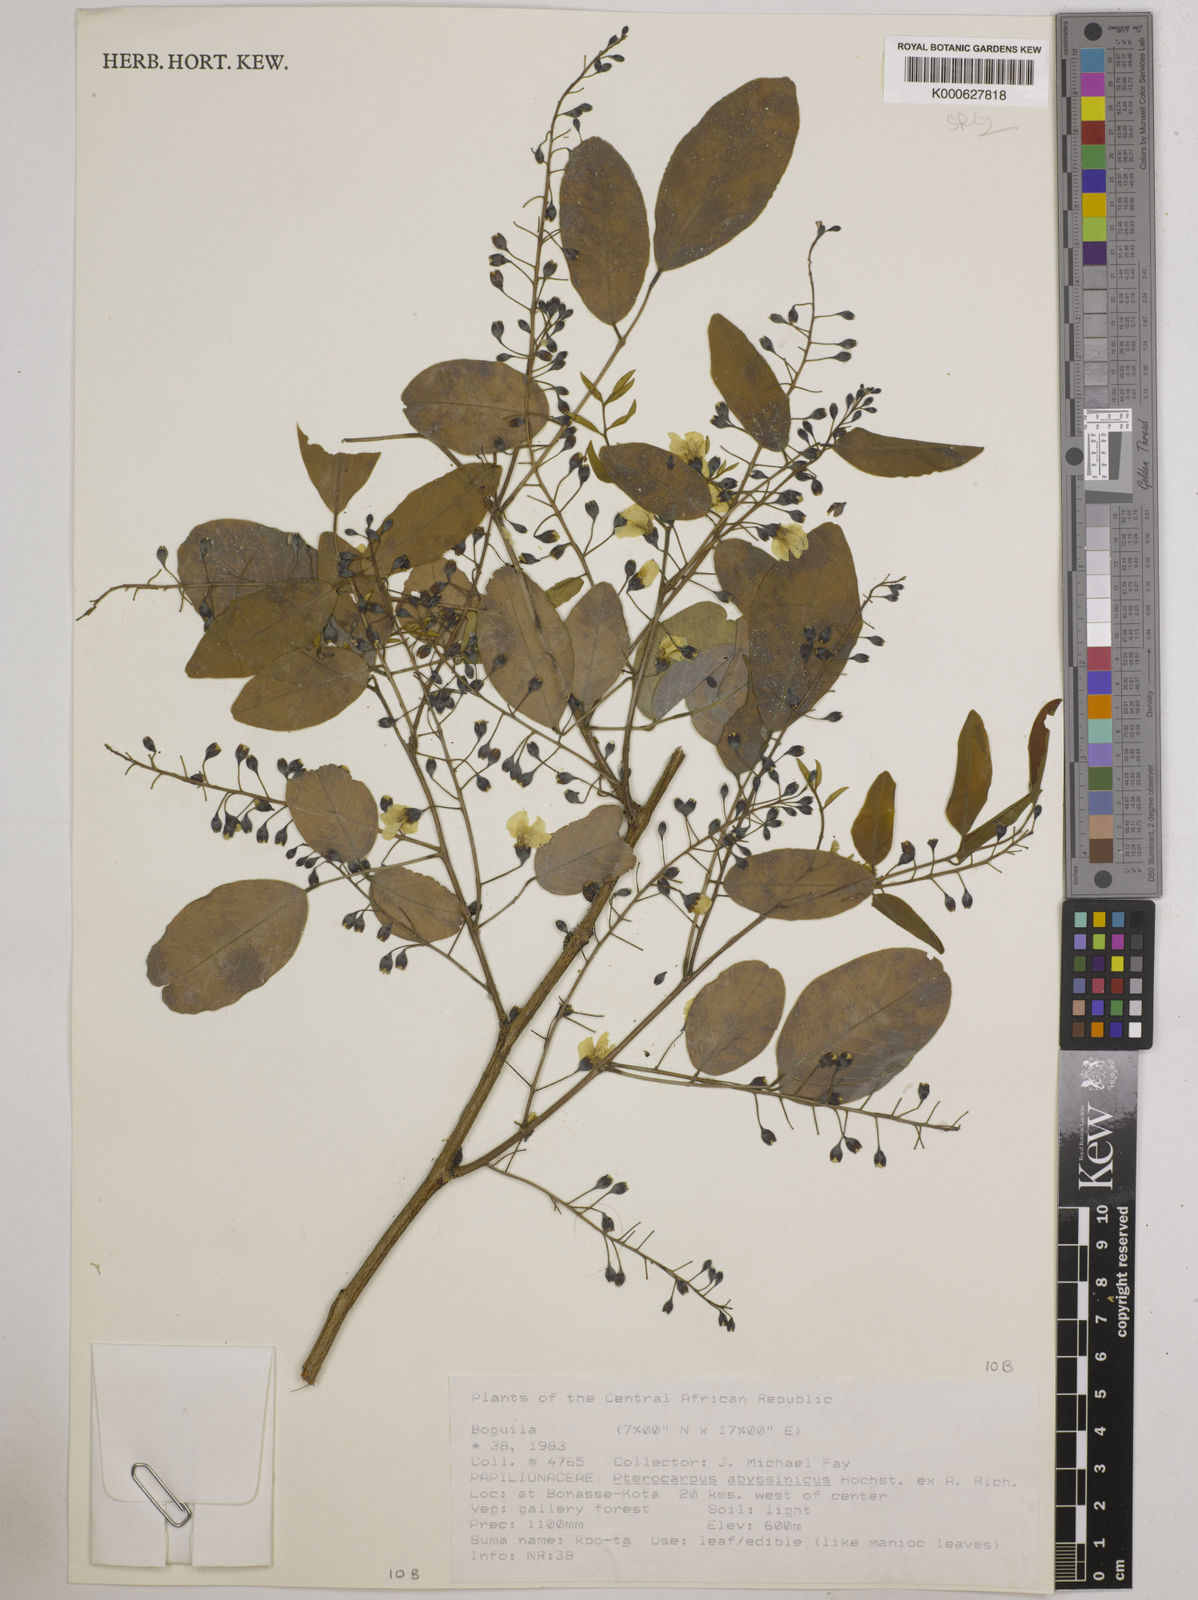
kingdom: Plantae
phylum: Tracheophyta
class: Magnoliopsida
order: Fabales
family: Fabaceae
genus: Pterocarpus
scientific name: Pterocarpus
